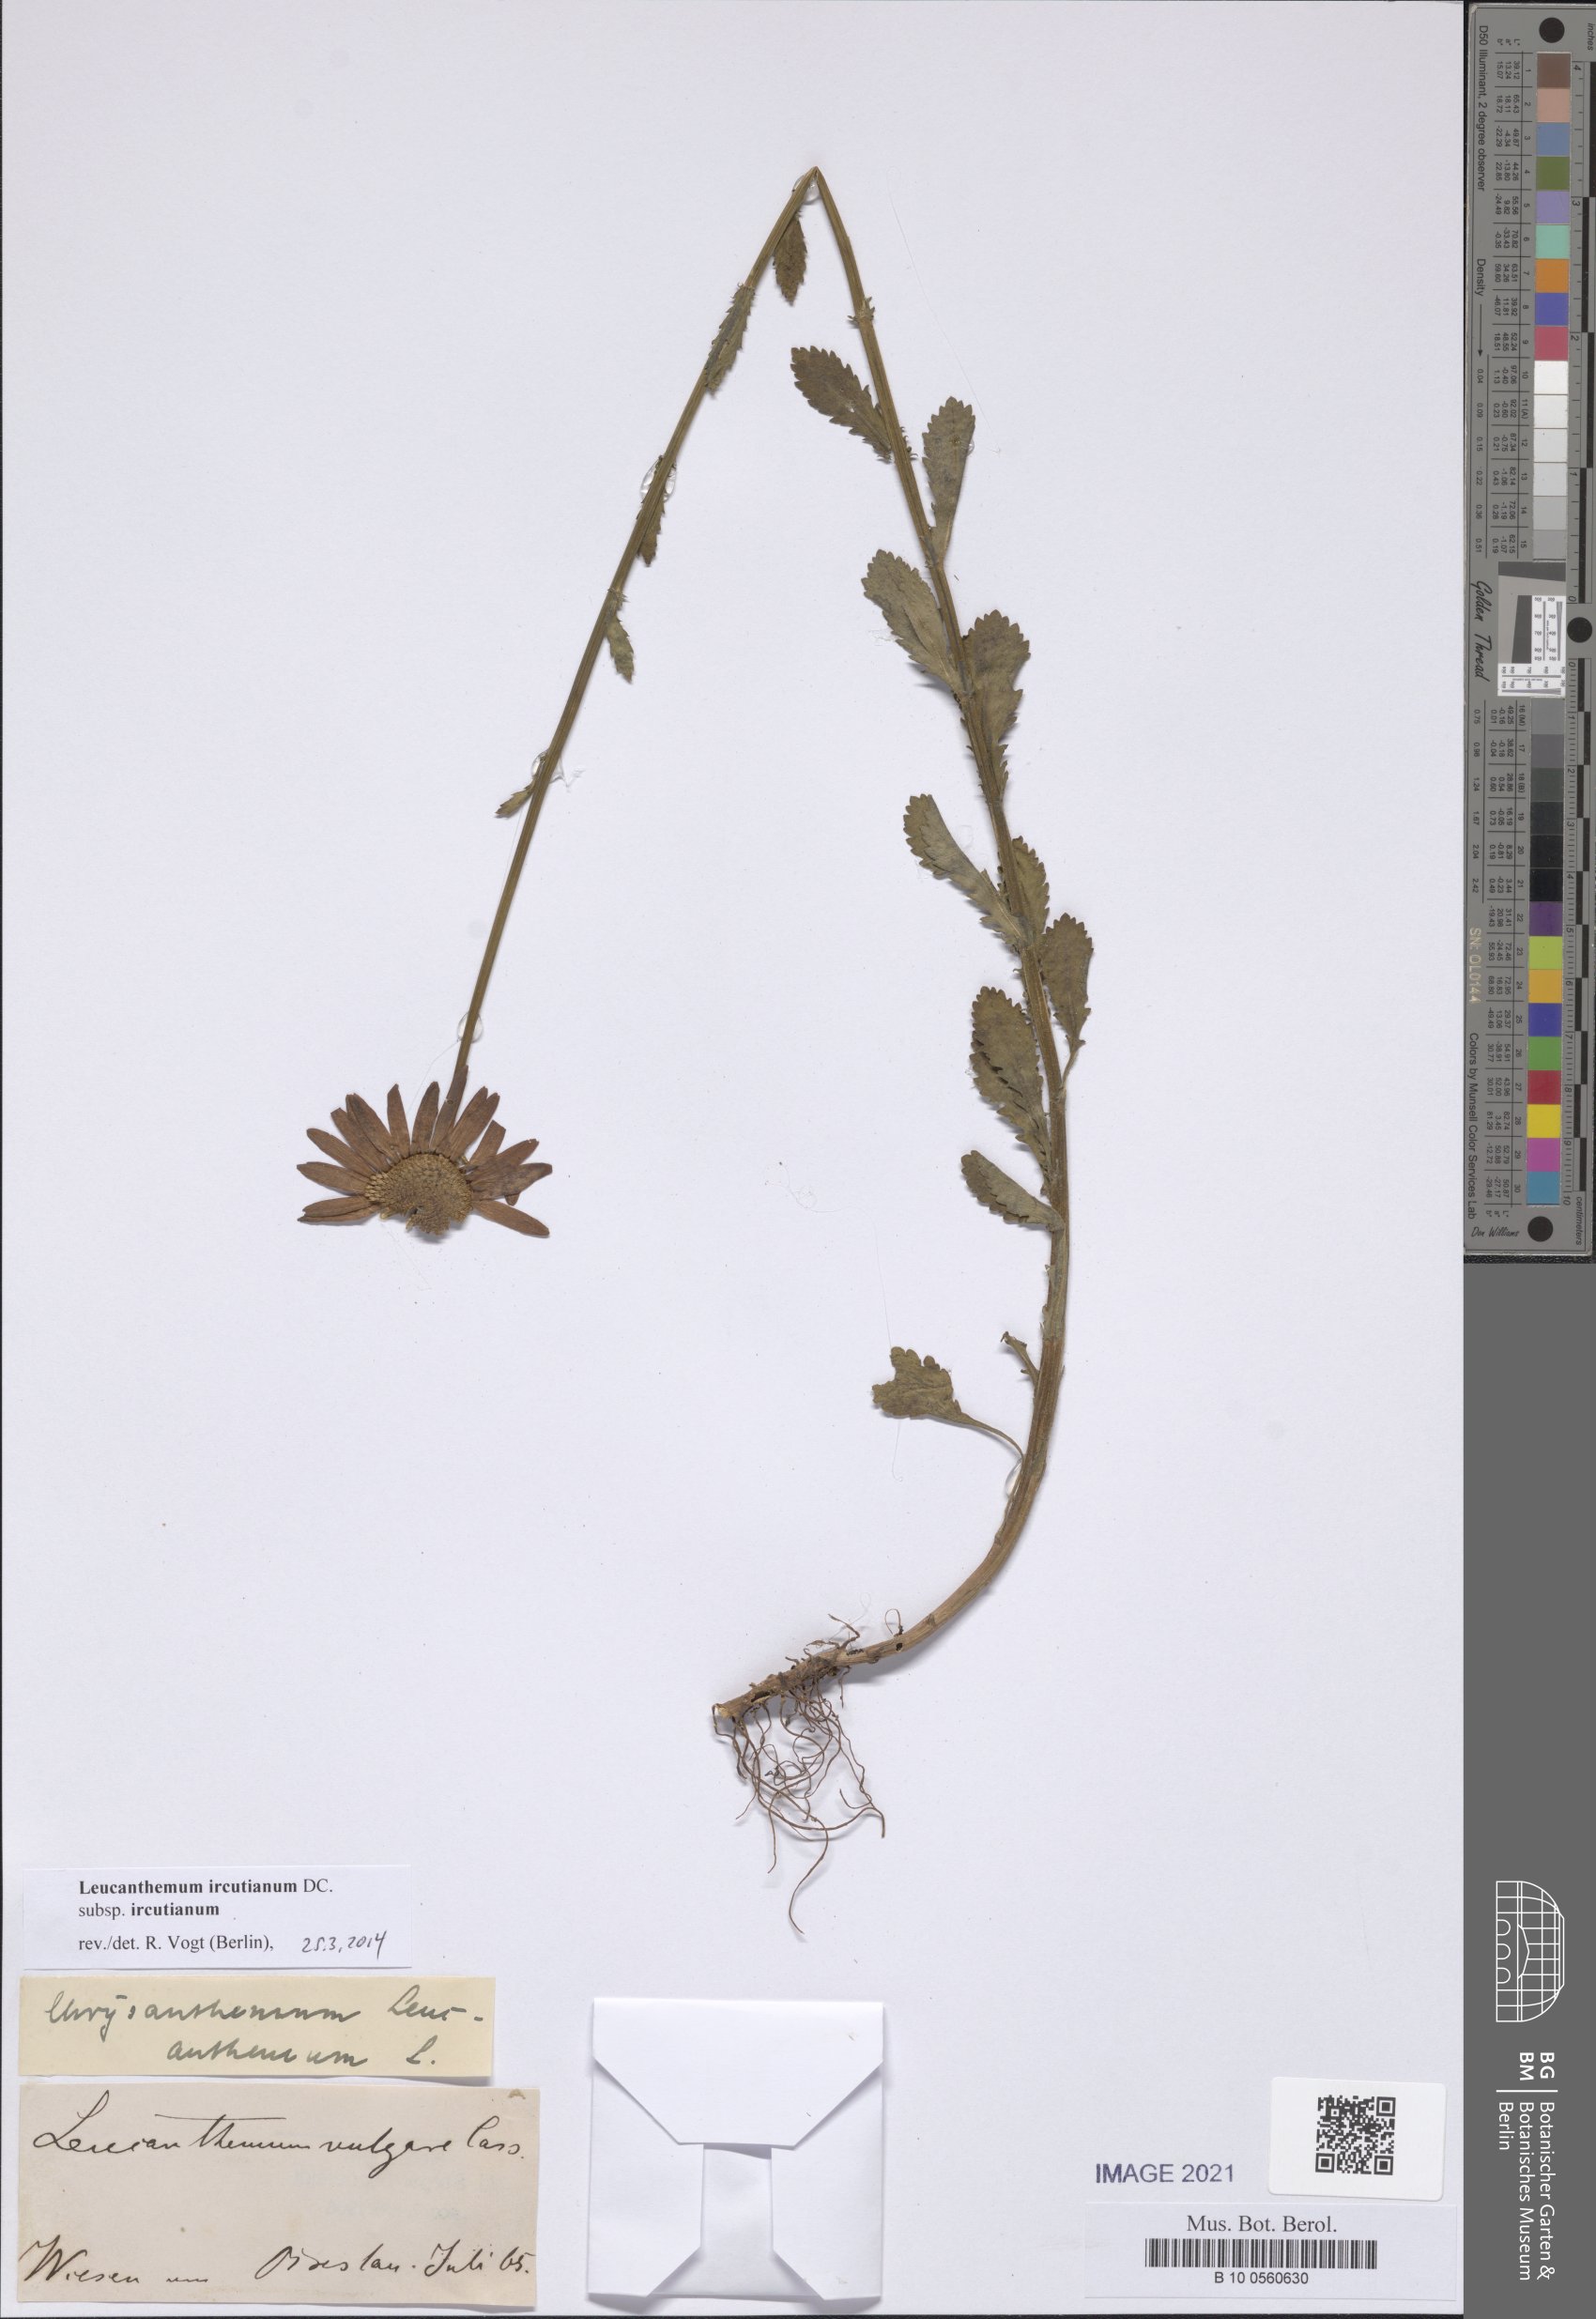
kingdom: Plantae
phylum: Tracheophyta
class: Magnoliopsida
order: Asterales
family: Asteraceae
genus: Leucanthemum
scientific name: Leucanthemum ircutianum
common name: Daisy
